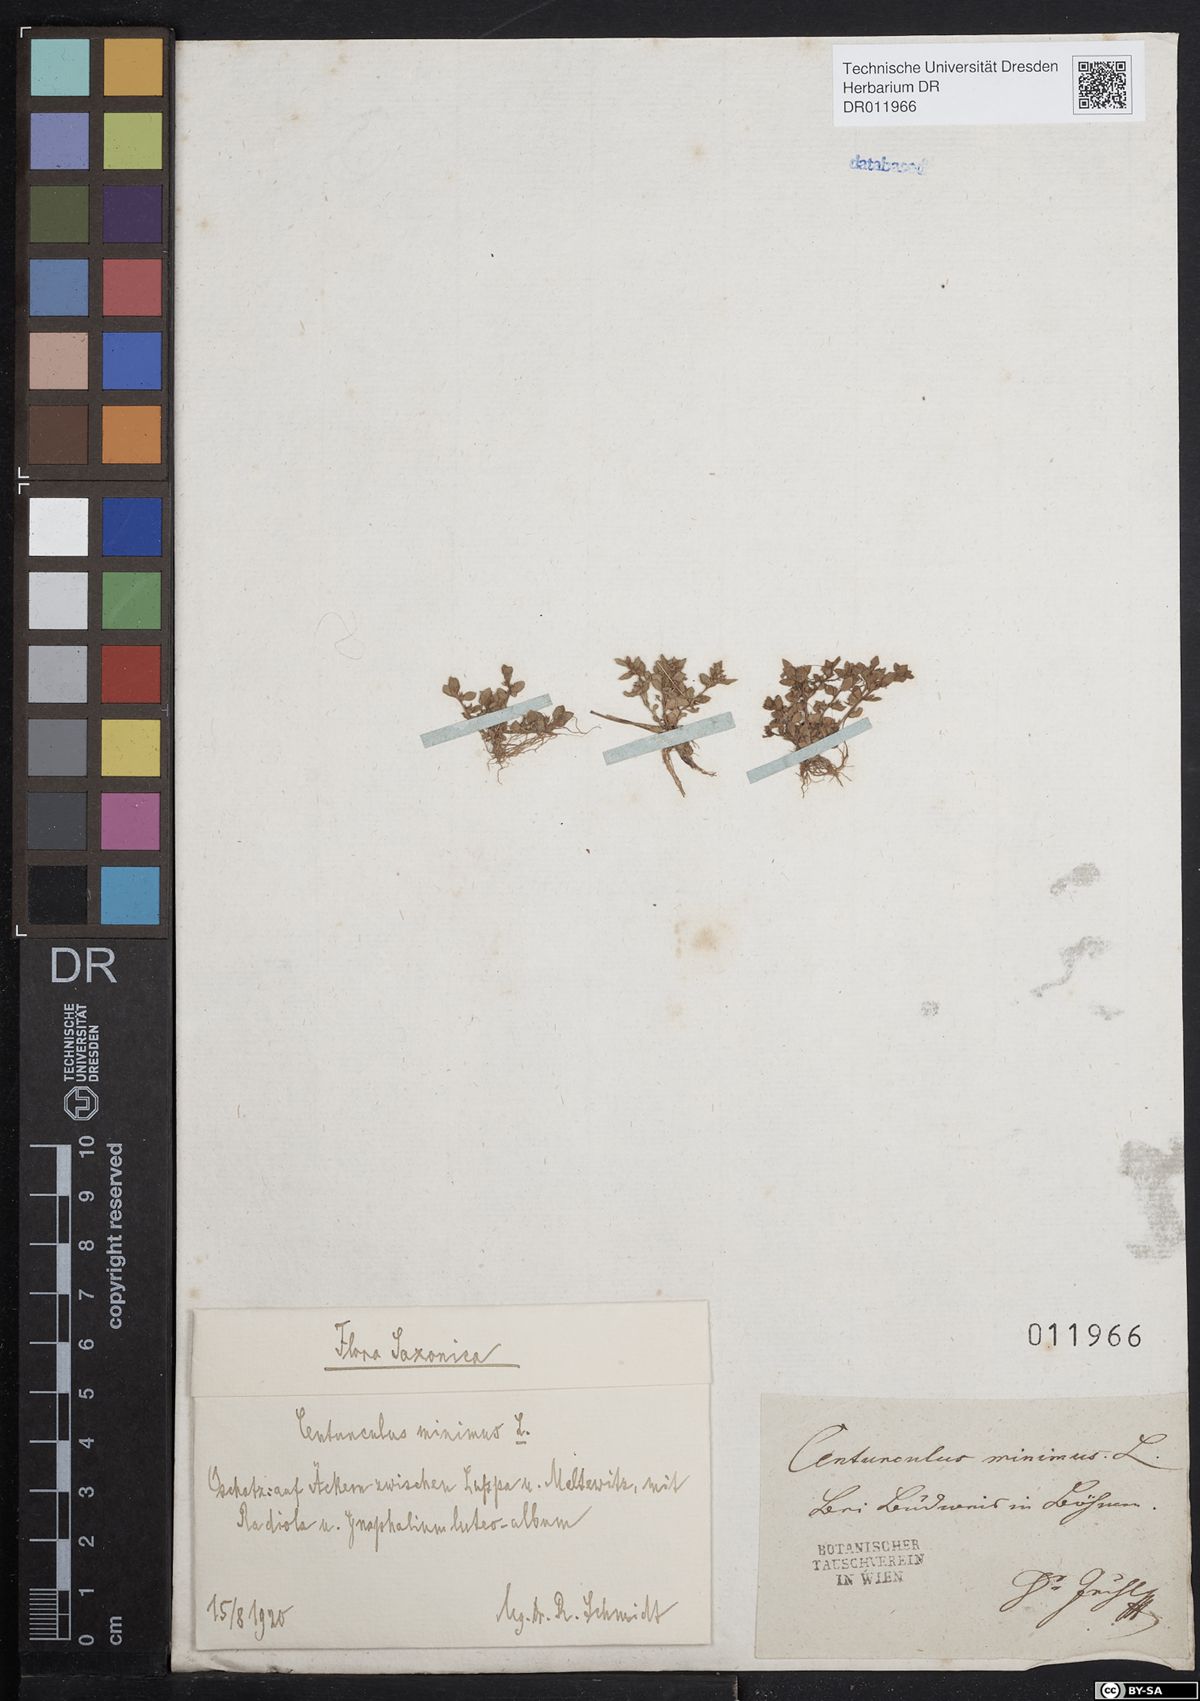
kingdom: Plantae
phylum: Tracheophyta
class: Magnoliopsida
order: Ericales
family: Primulaceae
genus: Lysimachia
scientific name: Lysimachia minima
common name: Chaffweed
